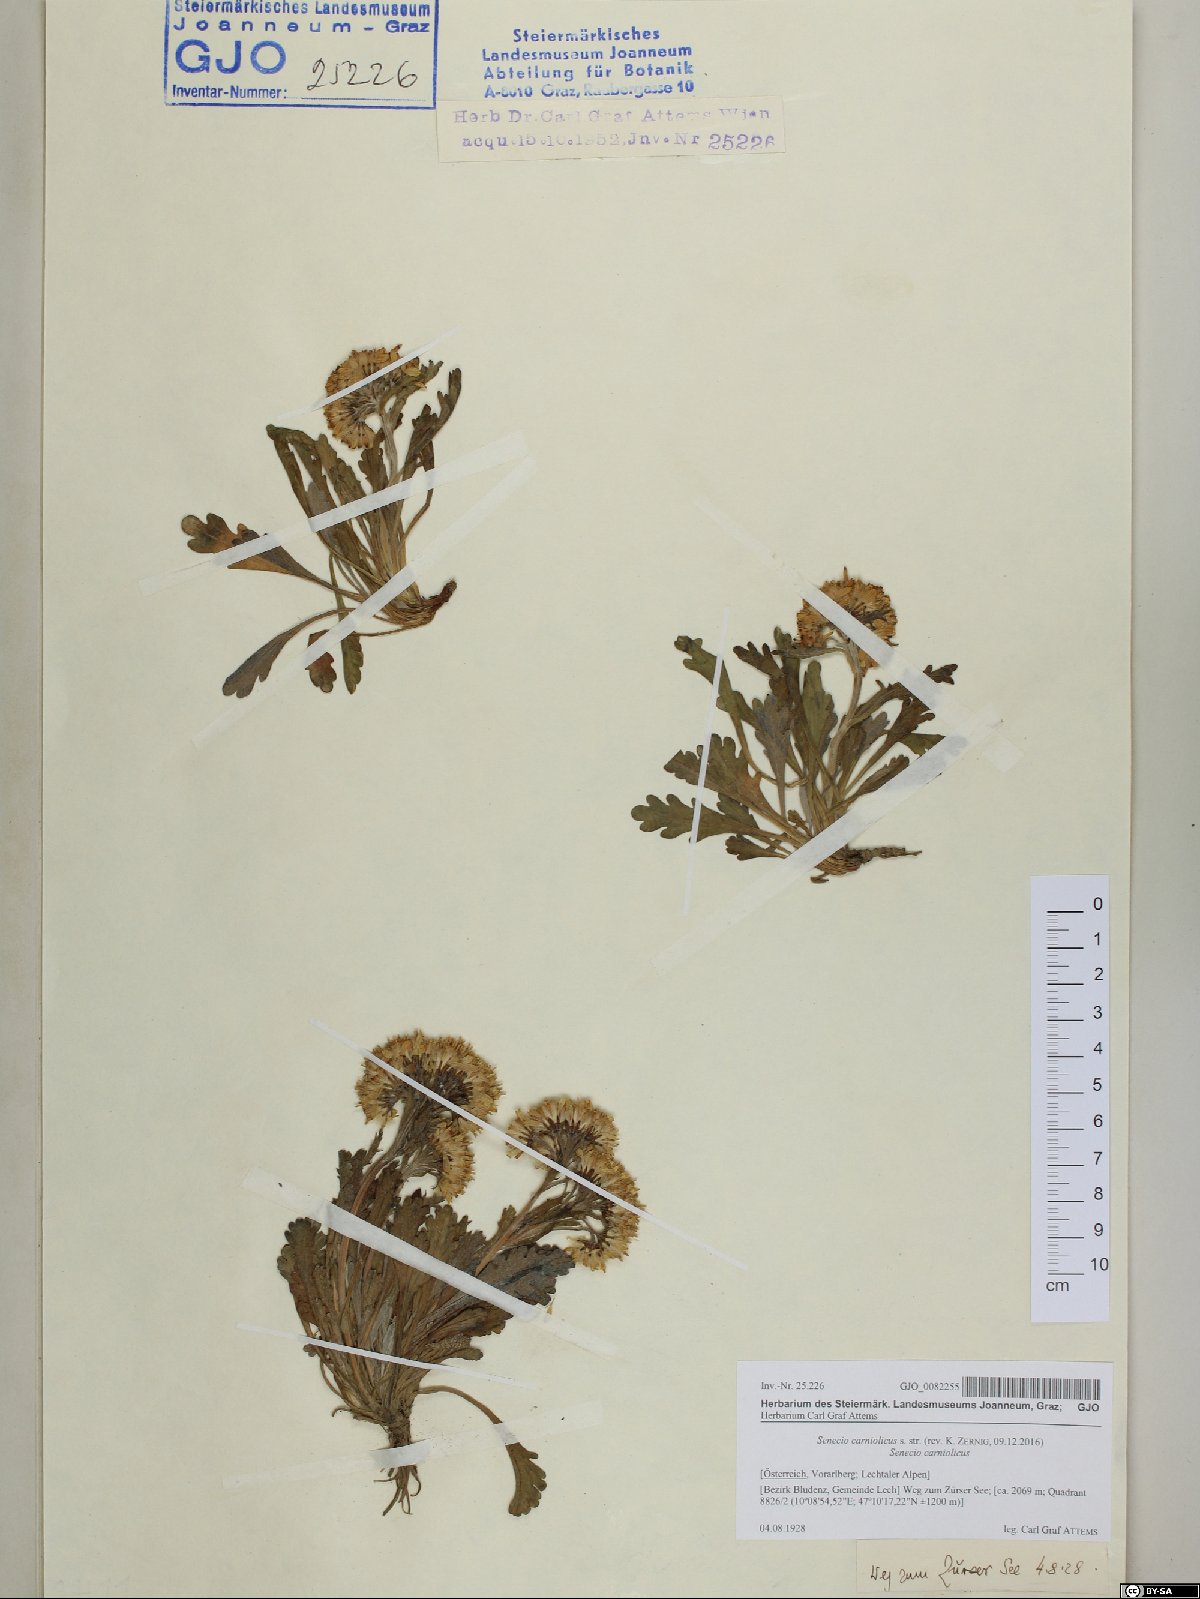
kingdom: Plantae
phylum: Tracheophyta
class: Magnoliopsida
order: Asterales
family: Asteraceae
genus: Jacobaea
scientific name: Jacobaea carniolica
